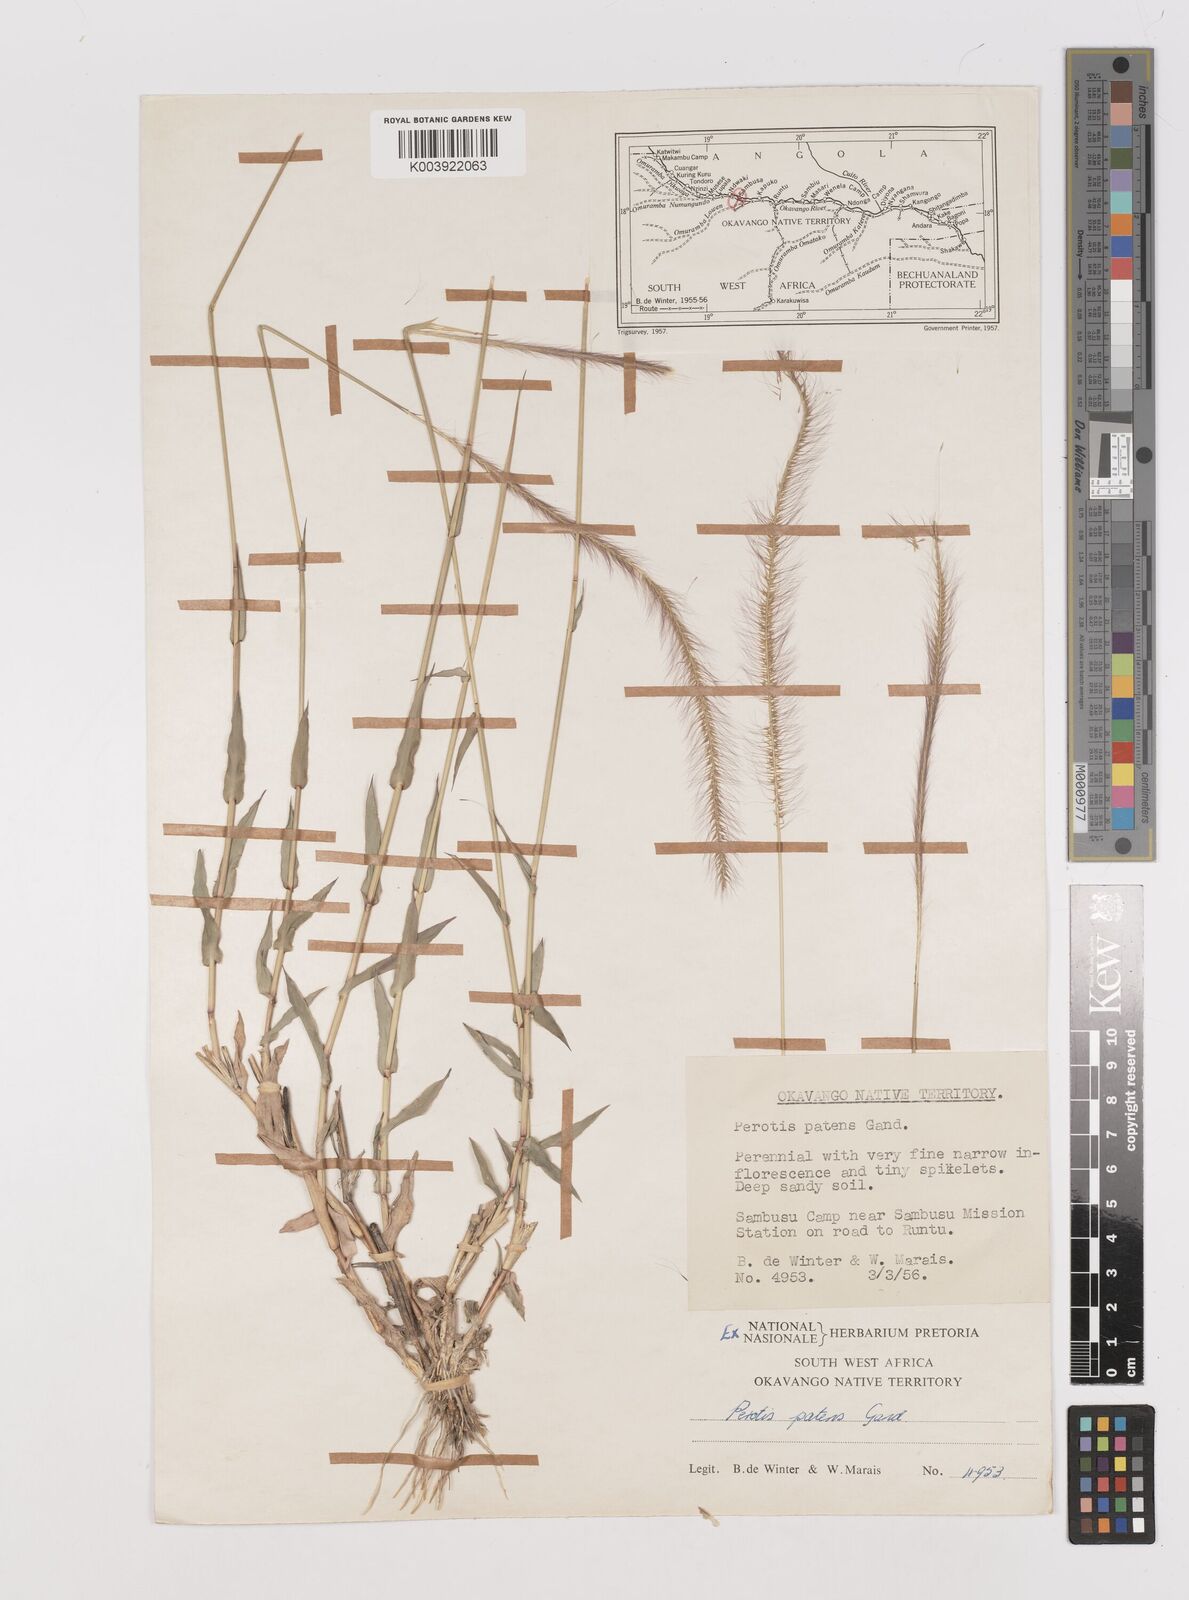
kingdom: Plantae
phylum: Tracheophyta
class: Liliopsida
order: Poales
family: Poaceae
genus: Perotis
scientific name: Perotis patens
